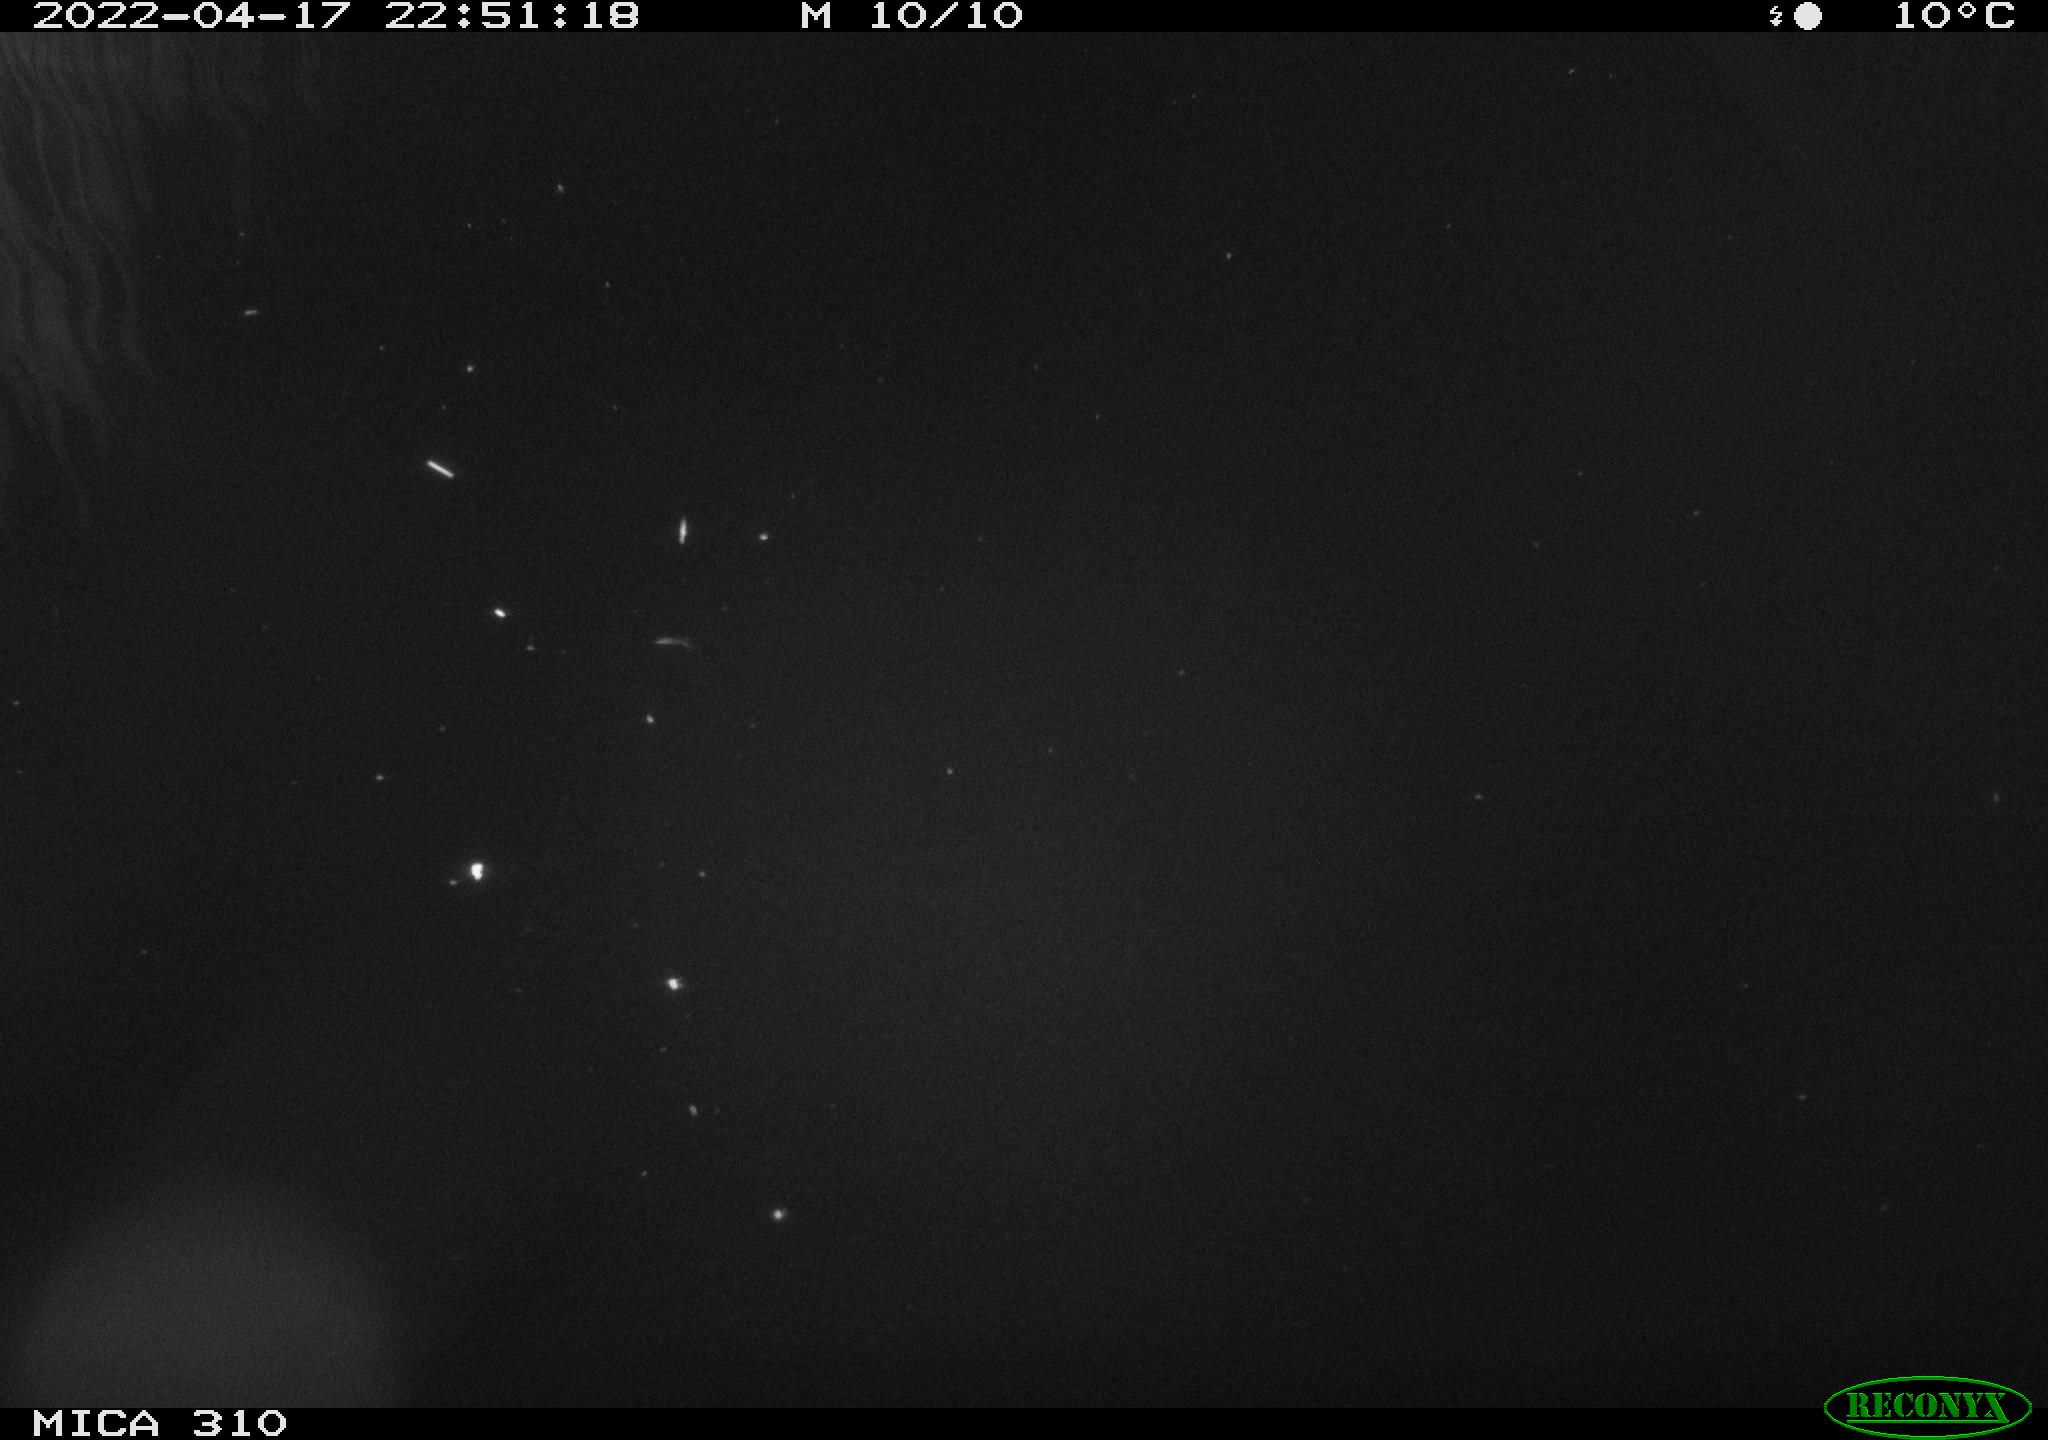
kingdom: Animalia
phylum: Chordata
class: Aves
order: Anseriformes
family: Anatidae
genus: Anas
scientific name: Anas platyrhynchos
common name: Mallard
